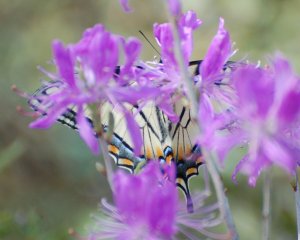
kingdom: Animalia
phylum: Arthropoda
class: Insecta
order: Lepidoptera
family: Papilionidae
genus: Pterourus
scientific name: Pterourus canadensis
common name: Canadian Tiger Swallowtail
